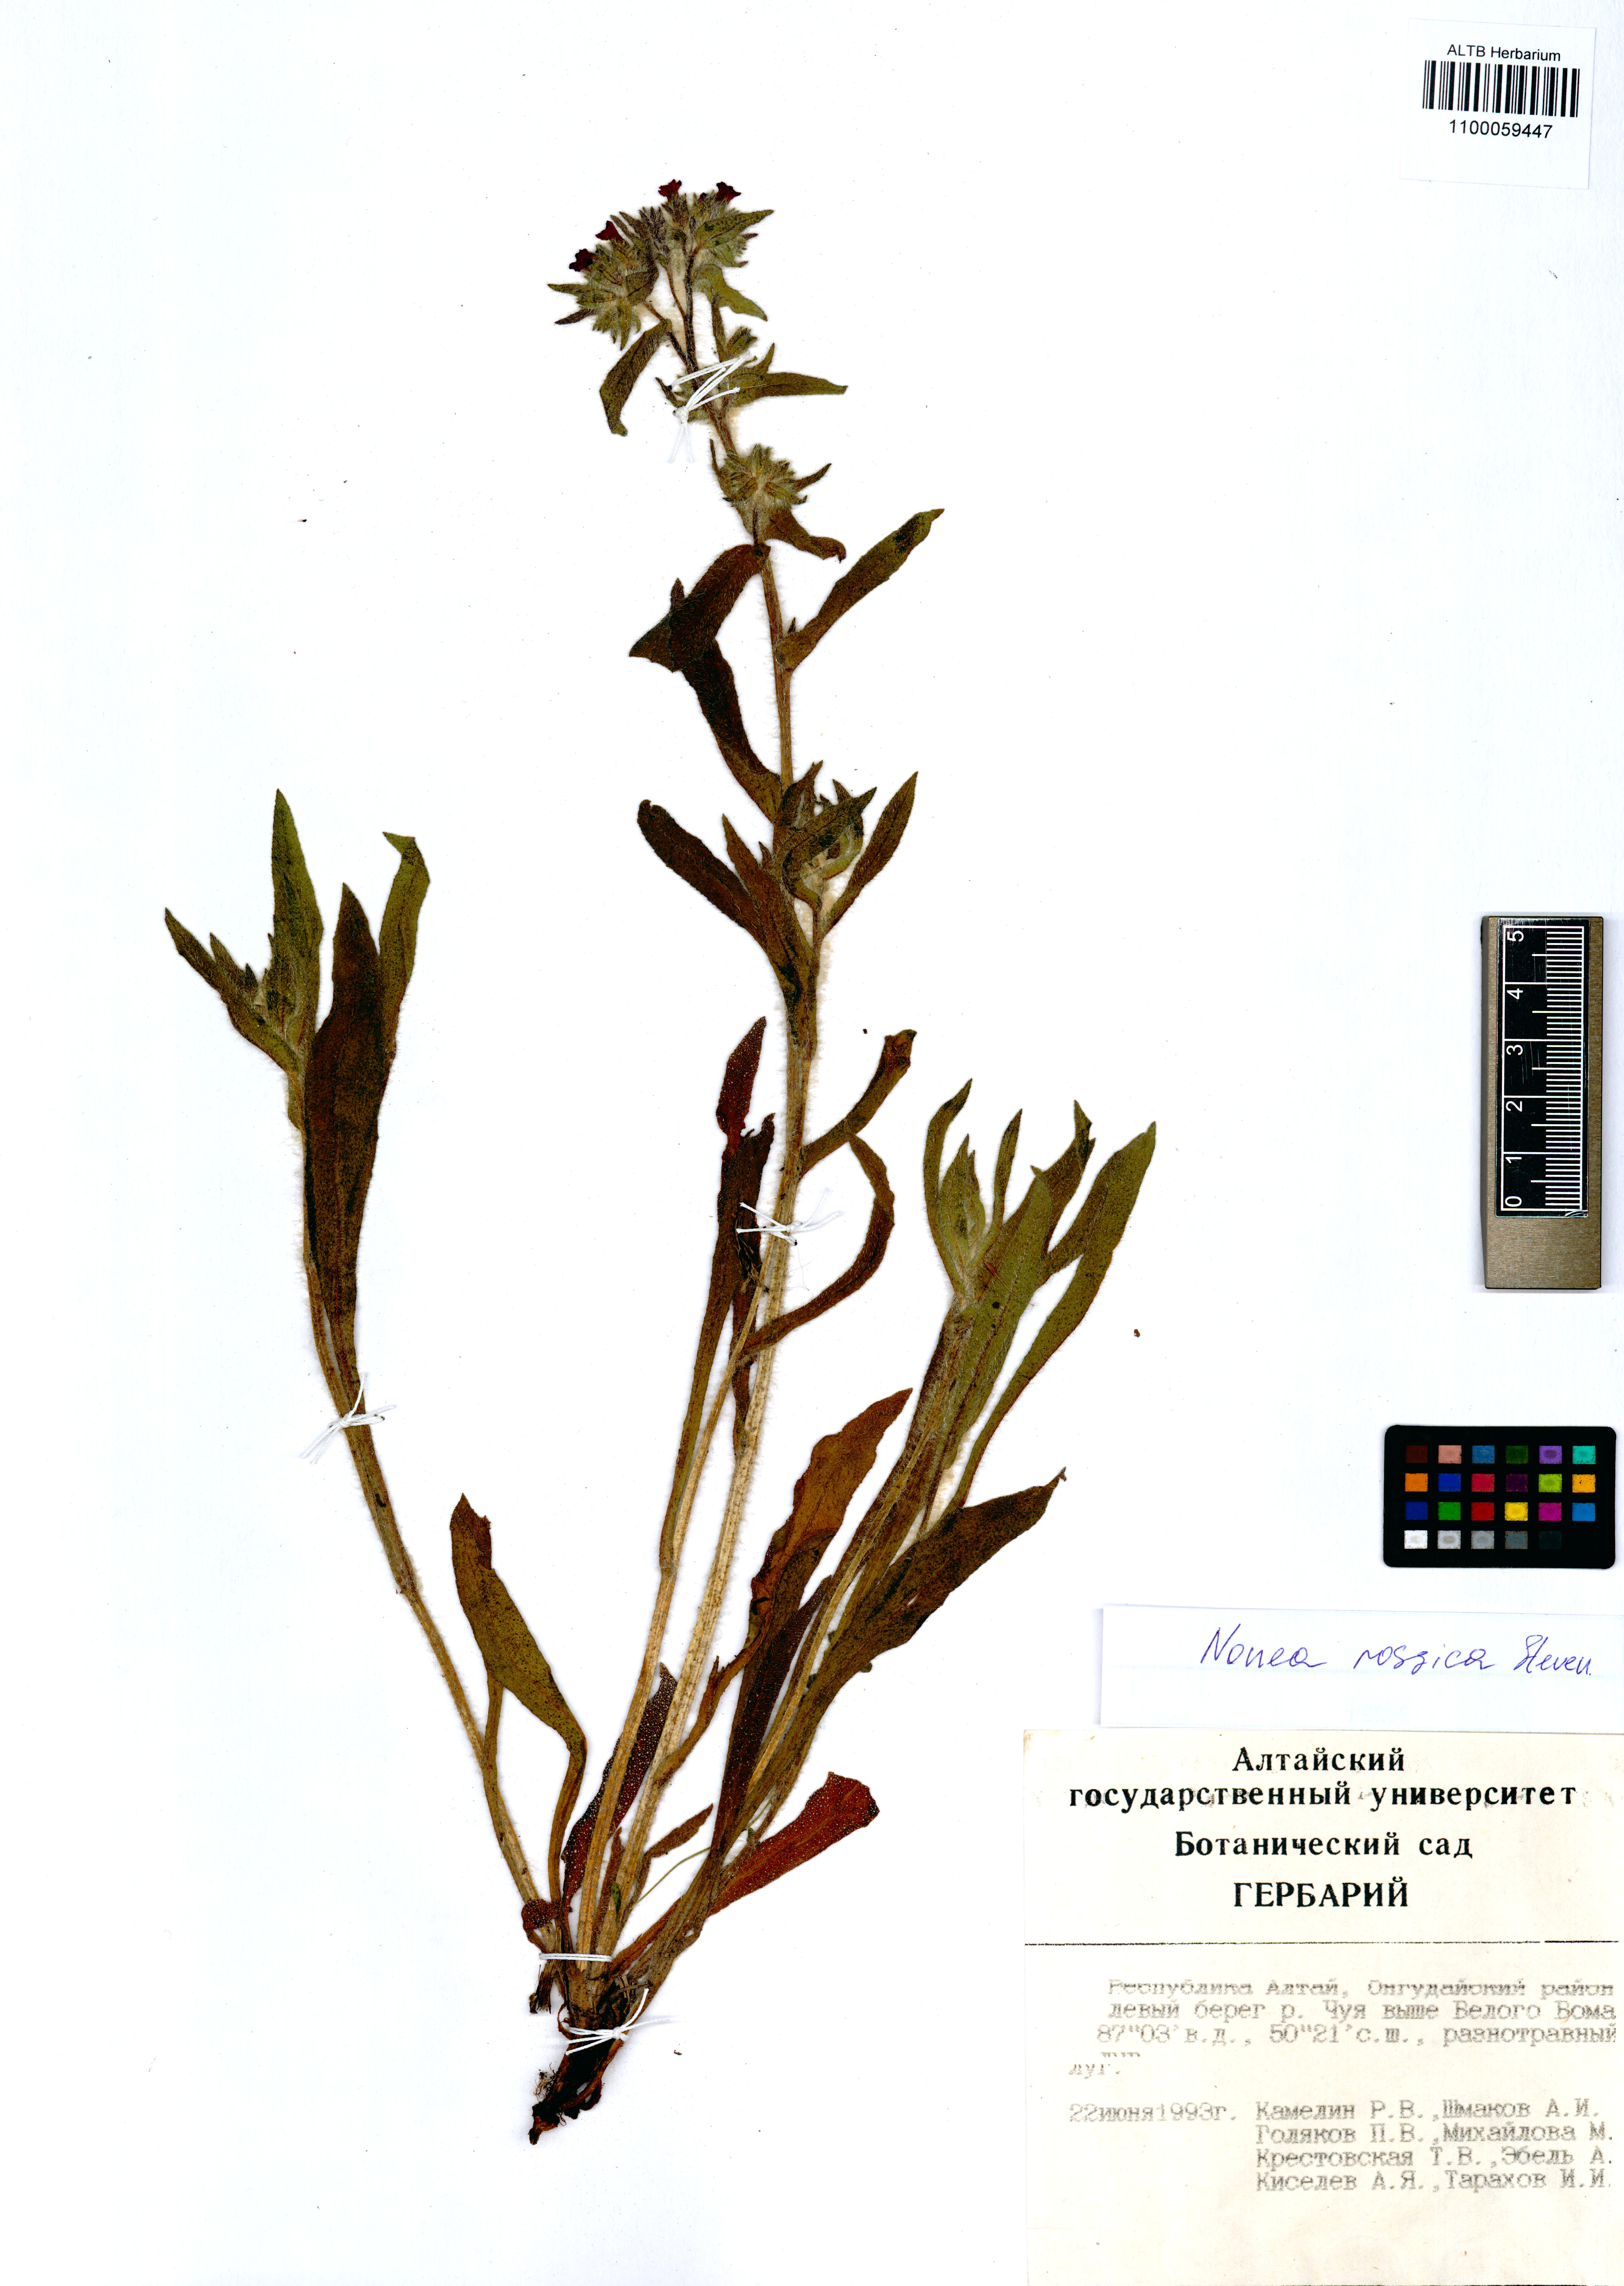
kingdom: Plantae
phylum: Tracheophyta
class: Magnoliopsida
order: Boraginales
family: Boraginaceae
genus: Nonea
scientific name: Nonea pulla
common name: Brown nonea
